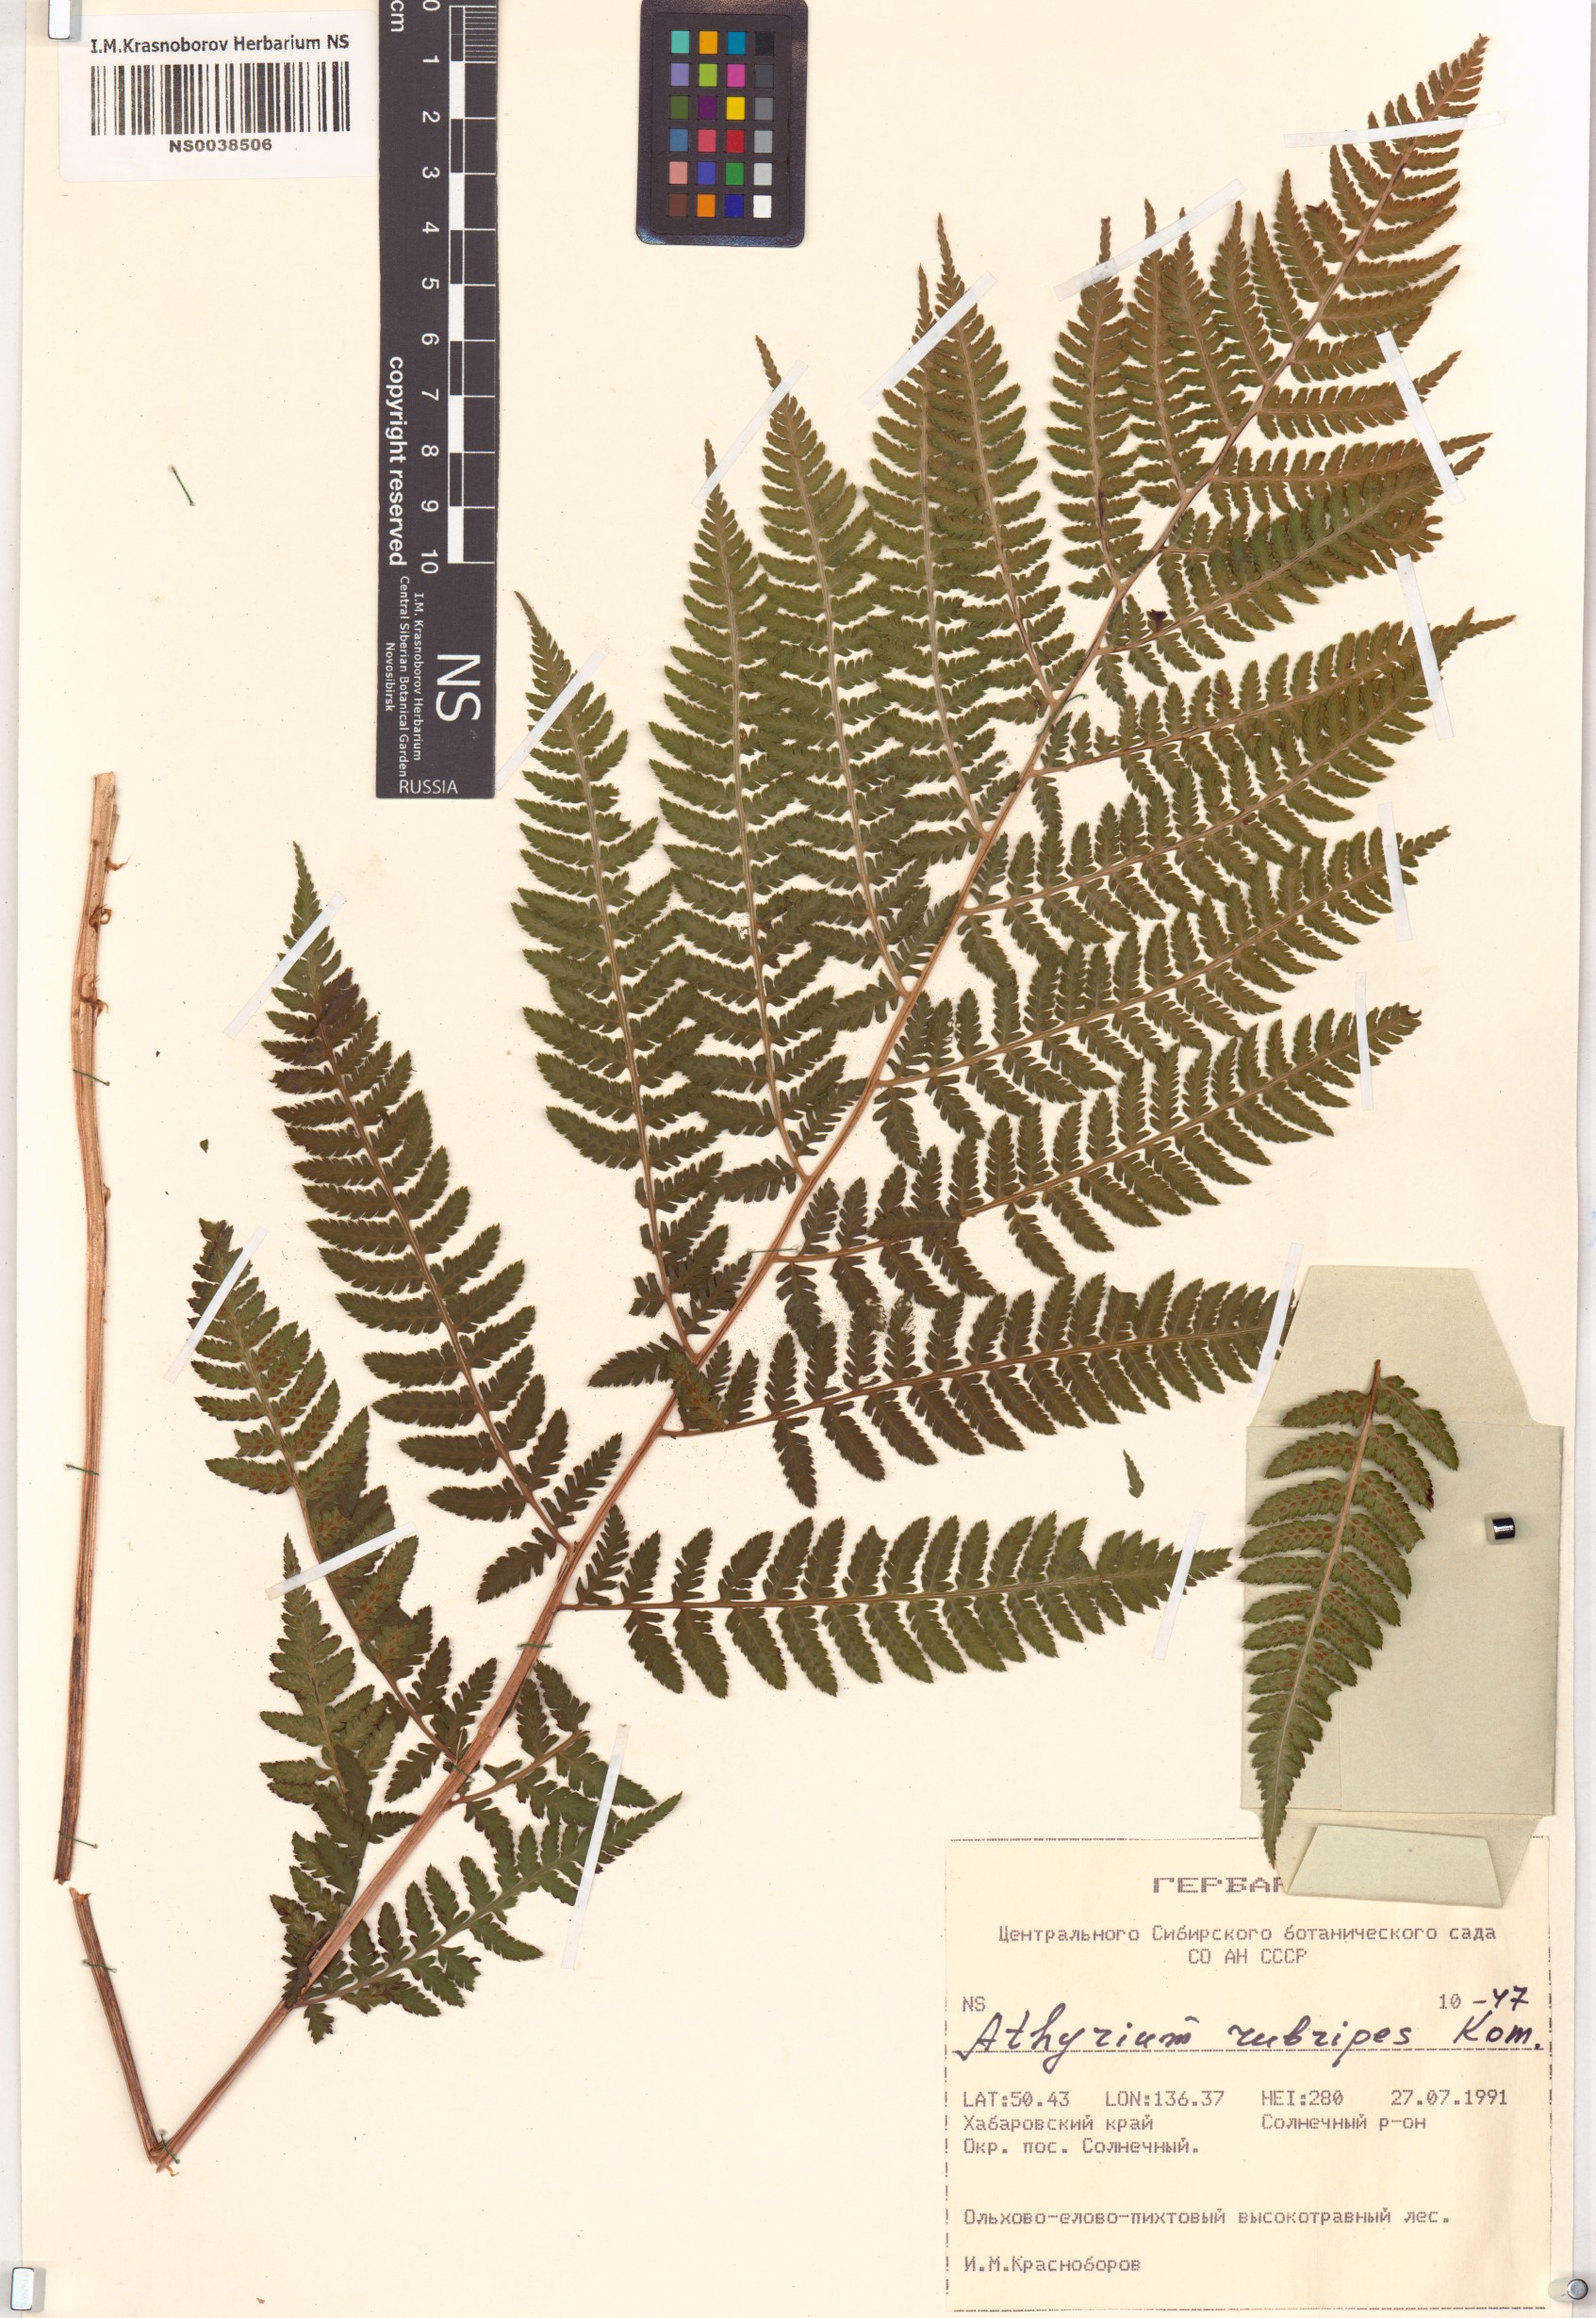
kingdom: Plantae
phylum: Tracheophyta
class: Polypodiopsida
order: Polypodiales
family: Athyriaceae
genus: Athyrium
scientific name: Athyrium rubripes
